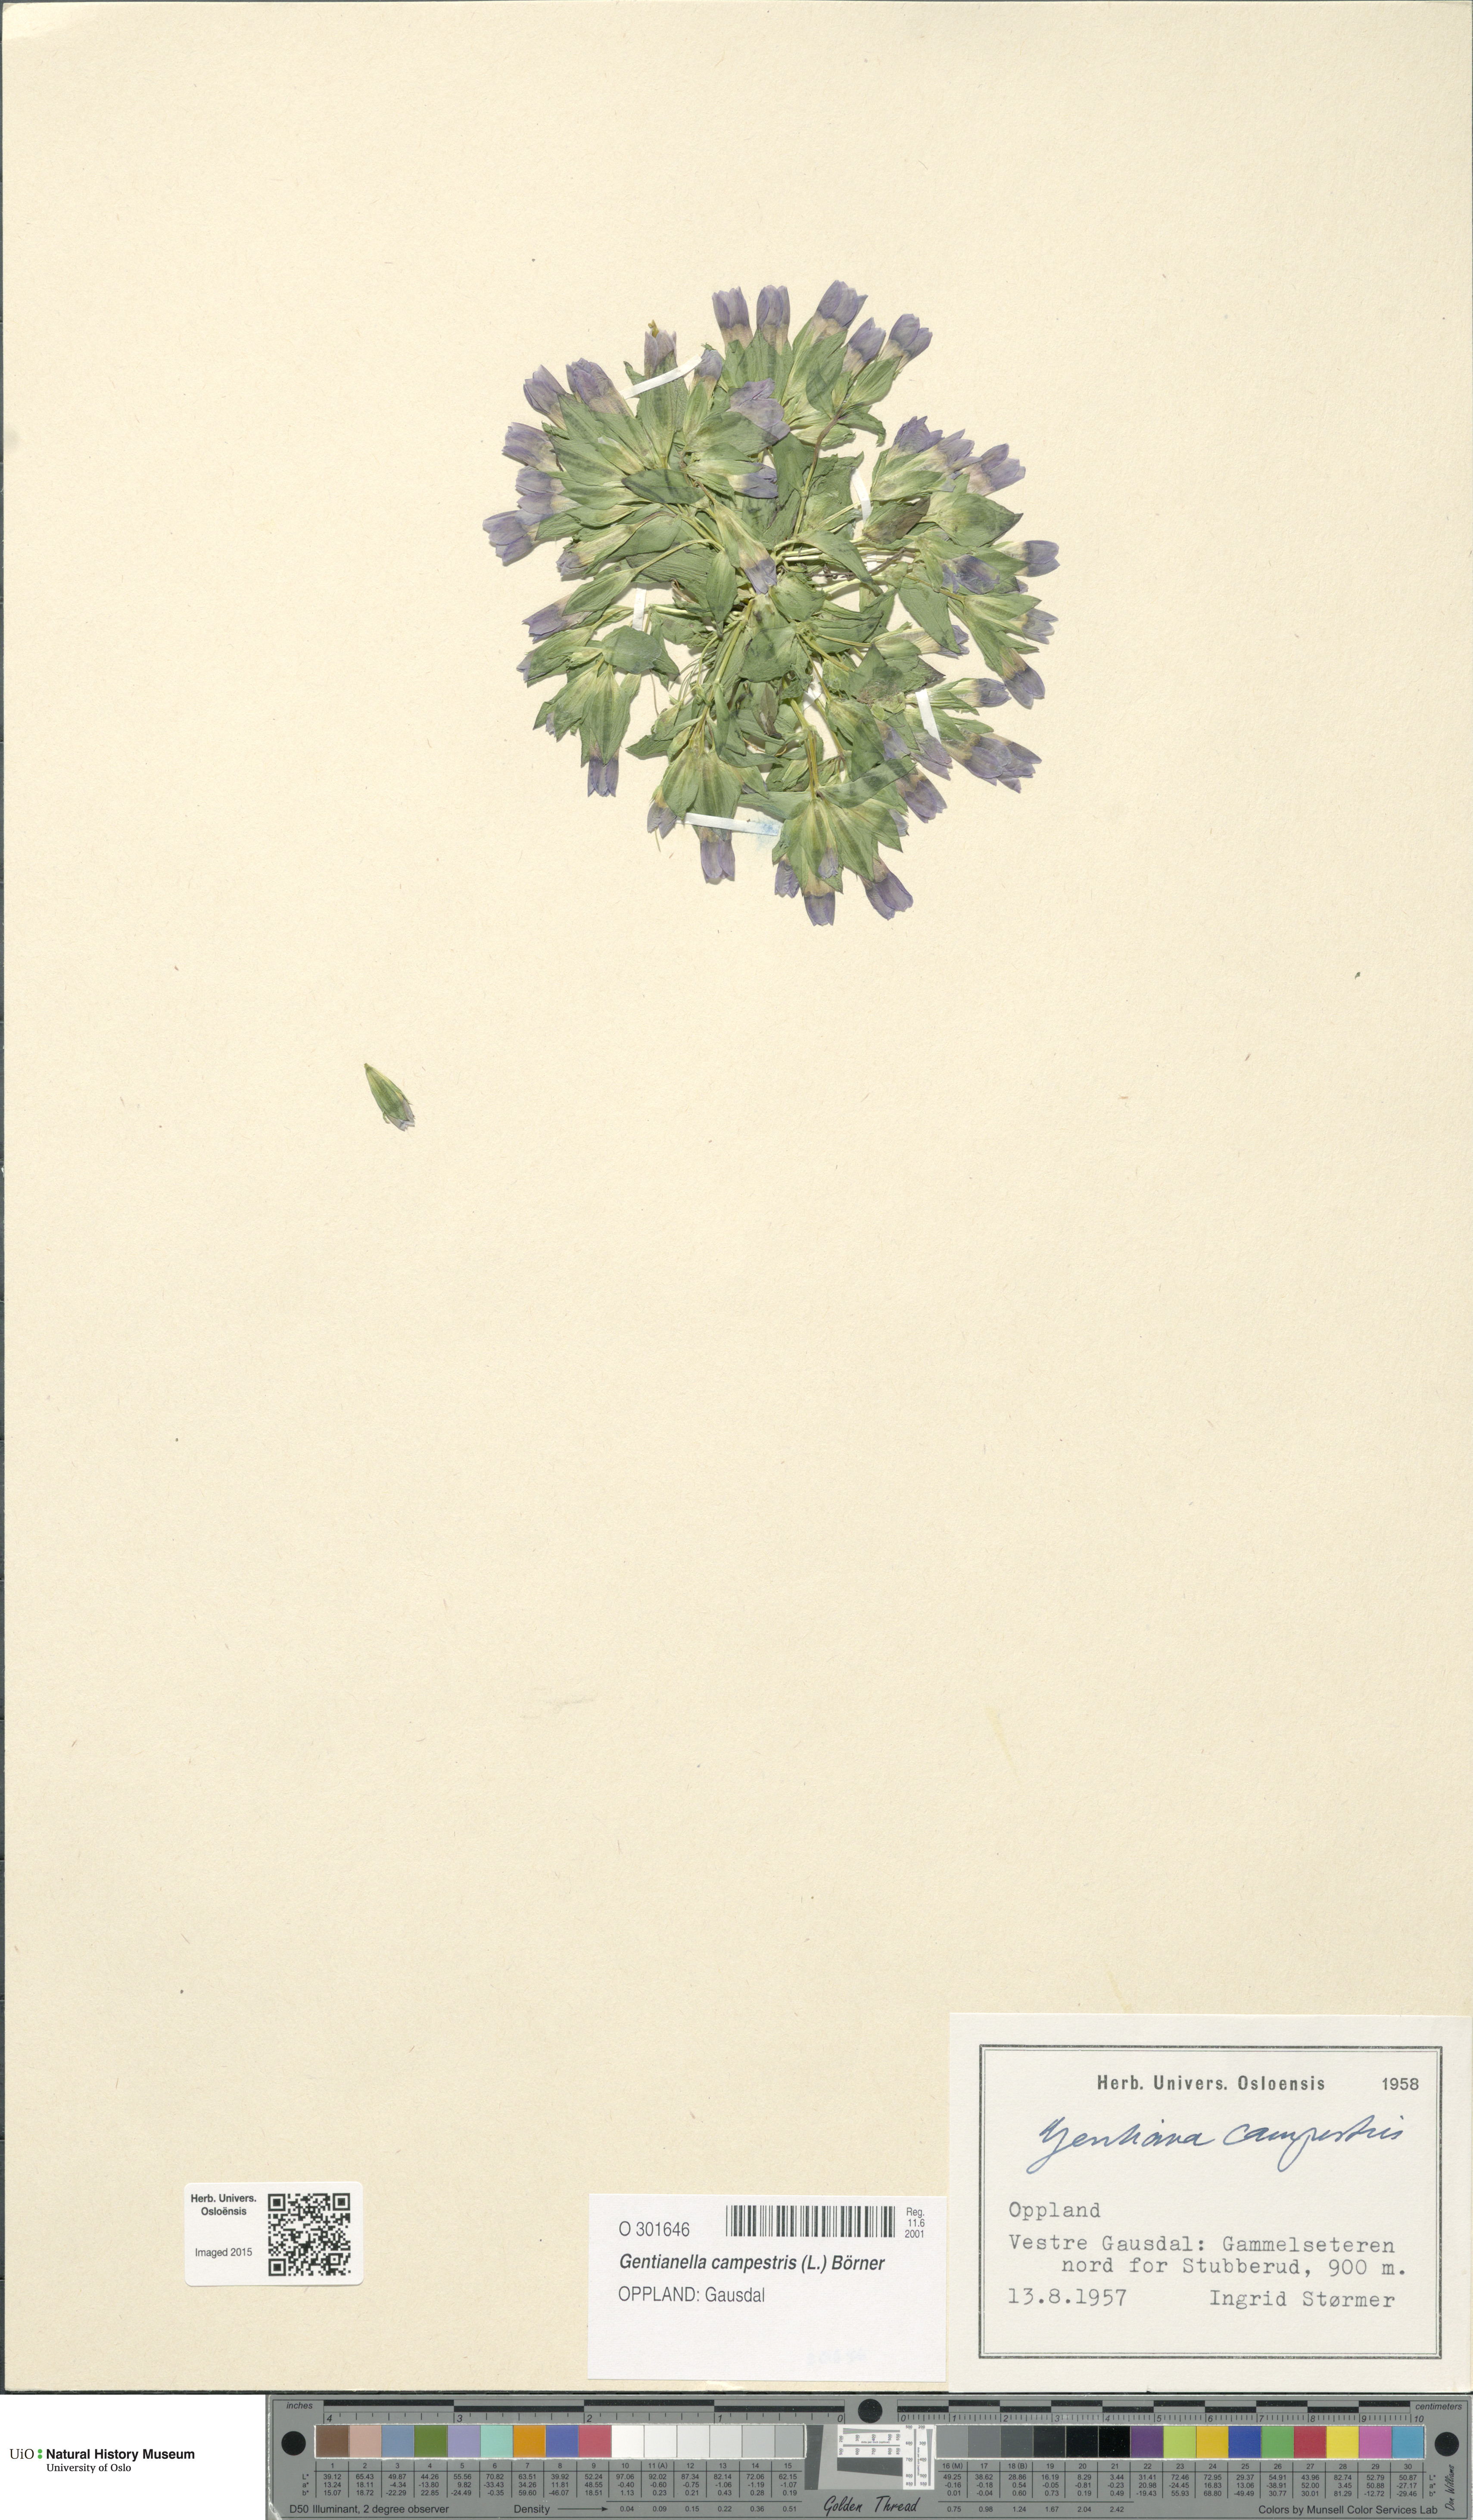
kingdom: Plantae
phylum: Tracheophyta
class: Magnoliopsida
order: Gentianales
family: Gentianaceae
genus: Gentianella
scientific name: Gentianella campestris
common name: Field gentian
